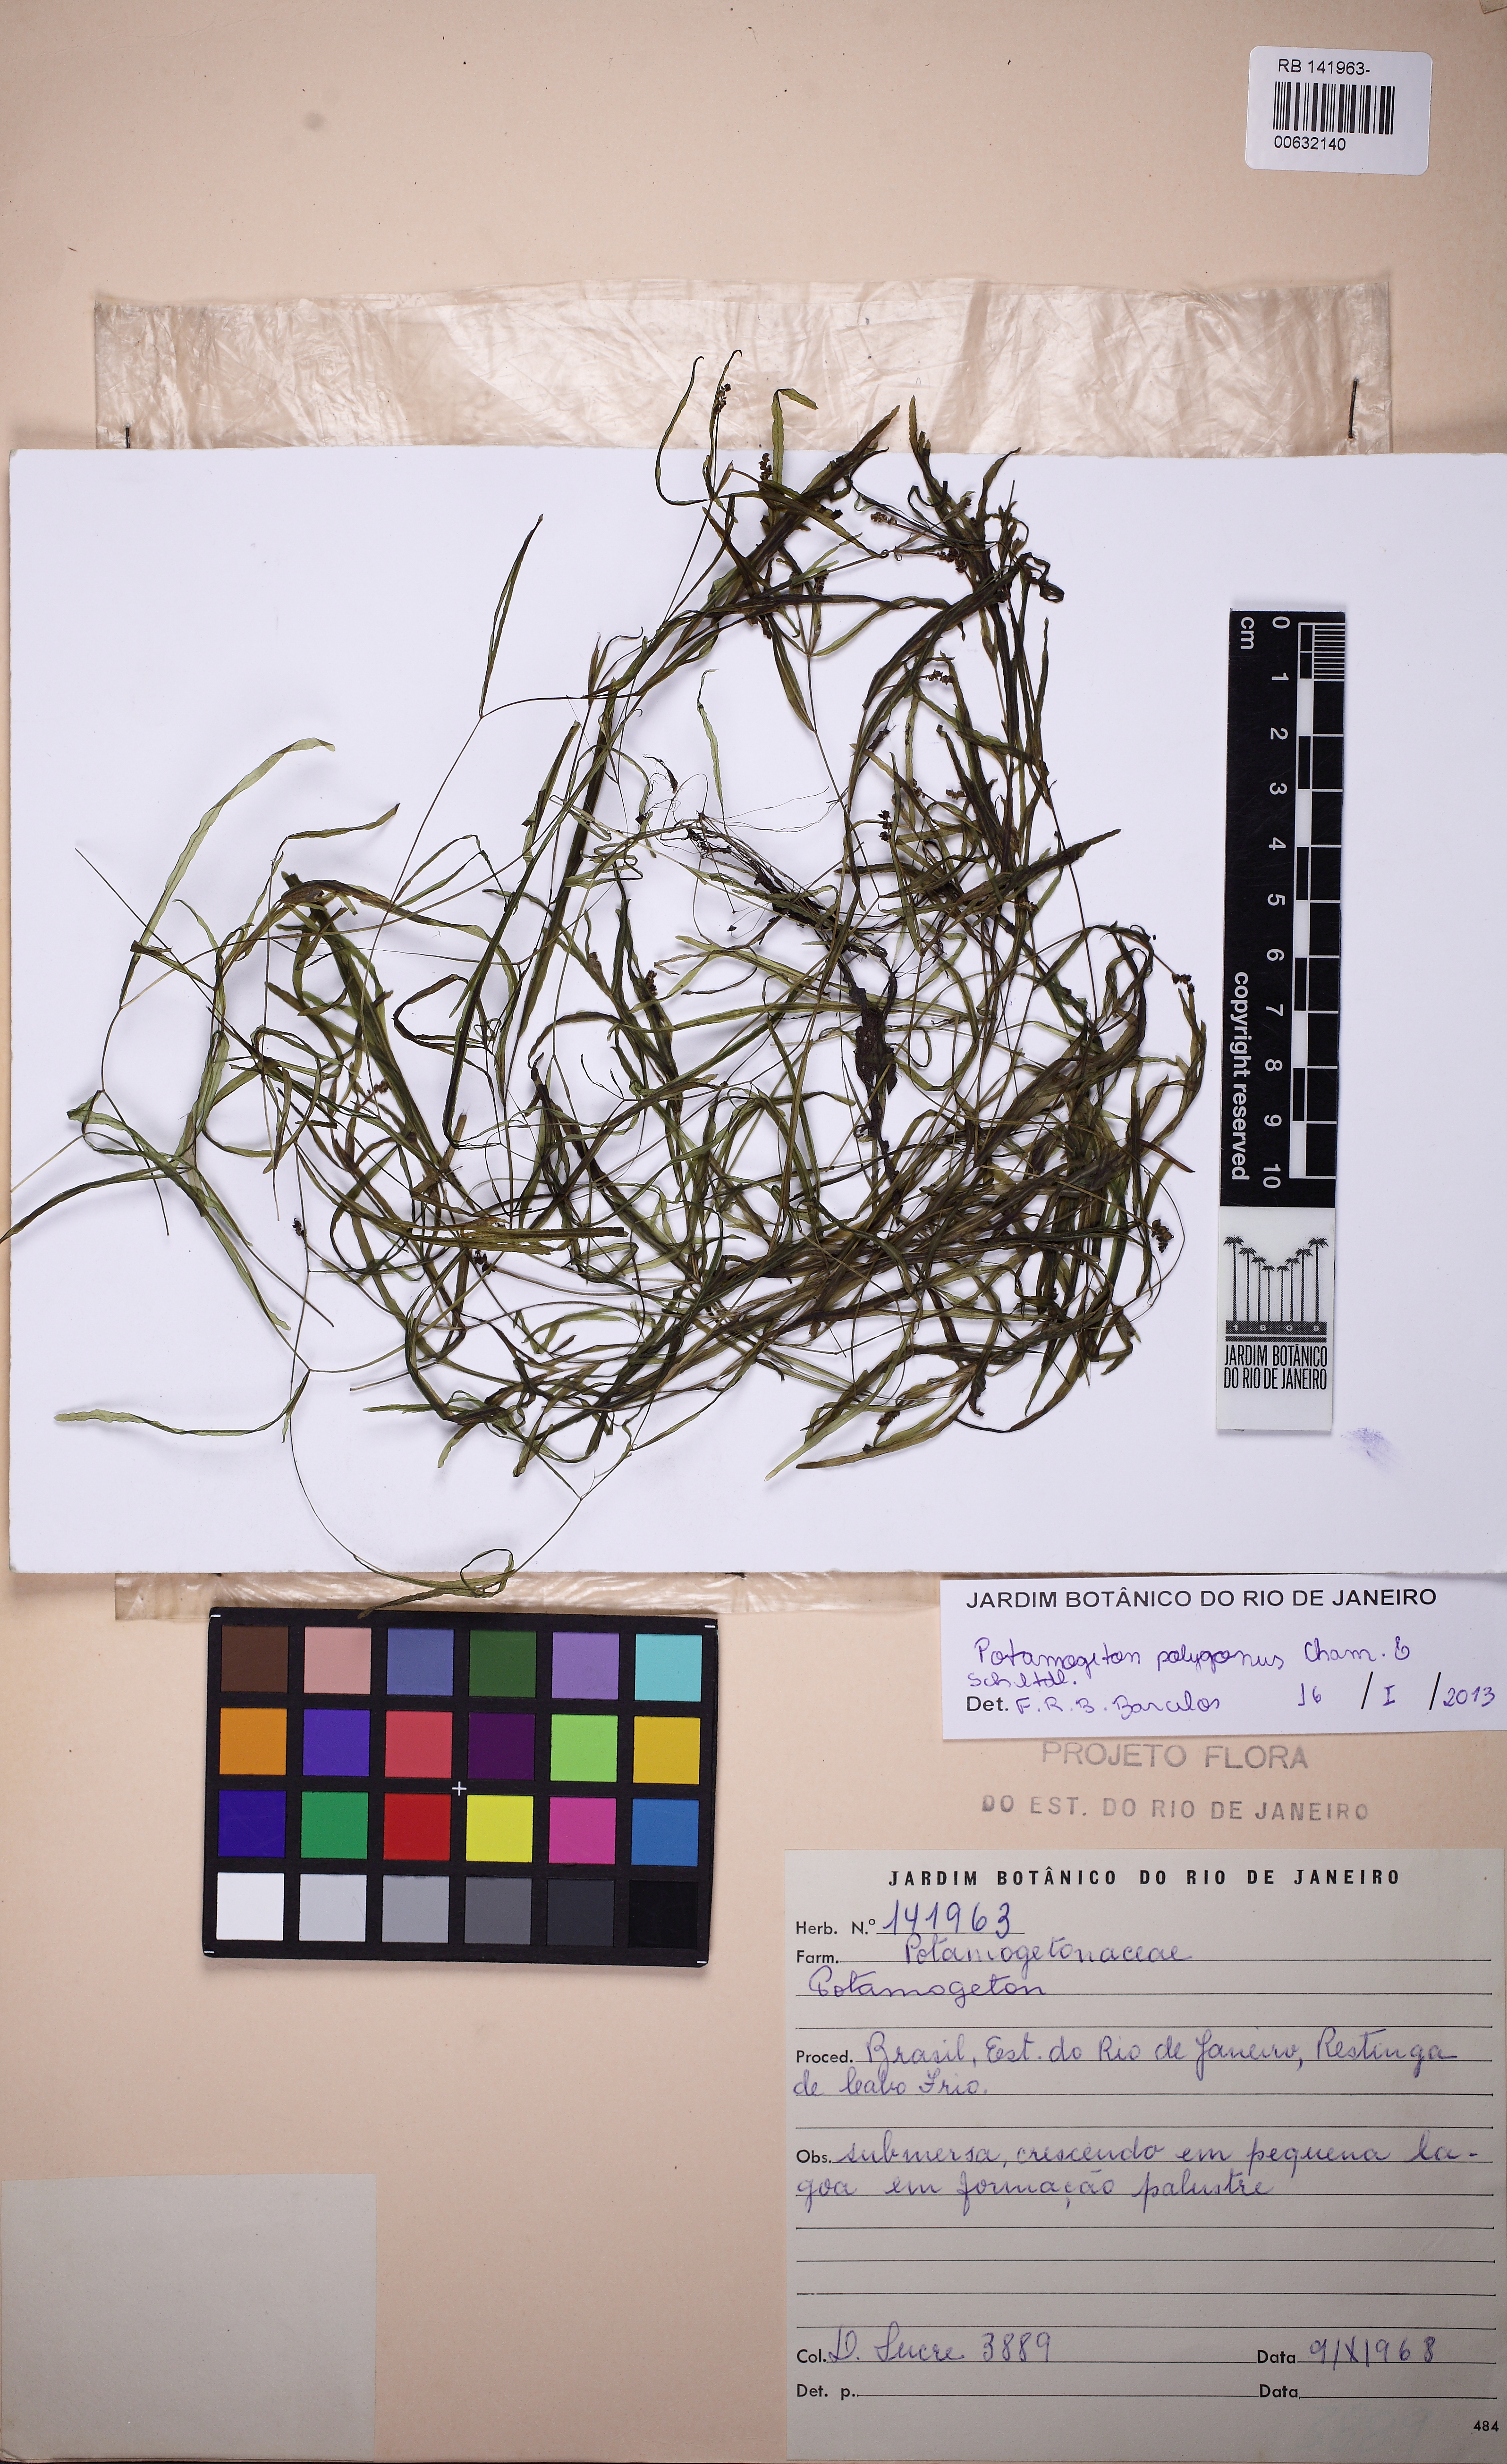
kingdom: Plantae
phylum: Tracheophyta
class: Liliopsida
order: Alismatales
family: Potamogetonaceae
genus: Potamogeton
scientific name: Potamogeton pusillus
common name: Lesser pondweed
